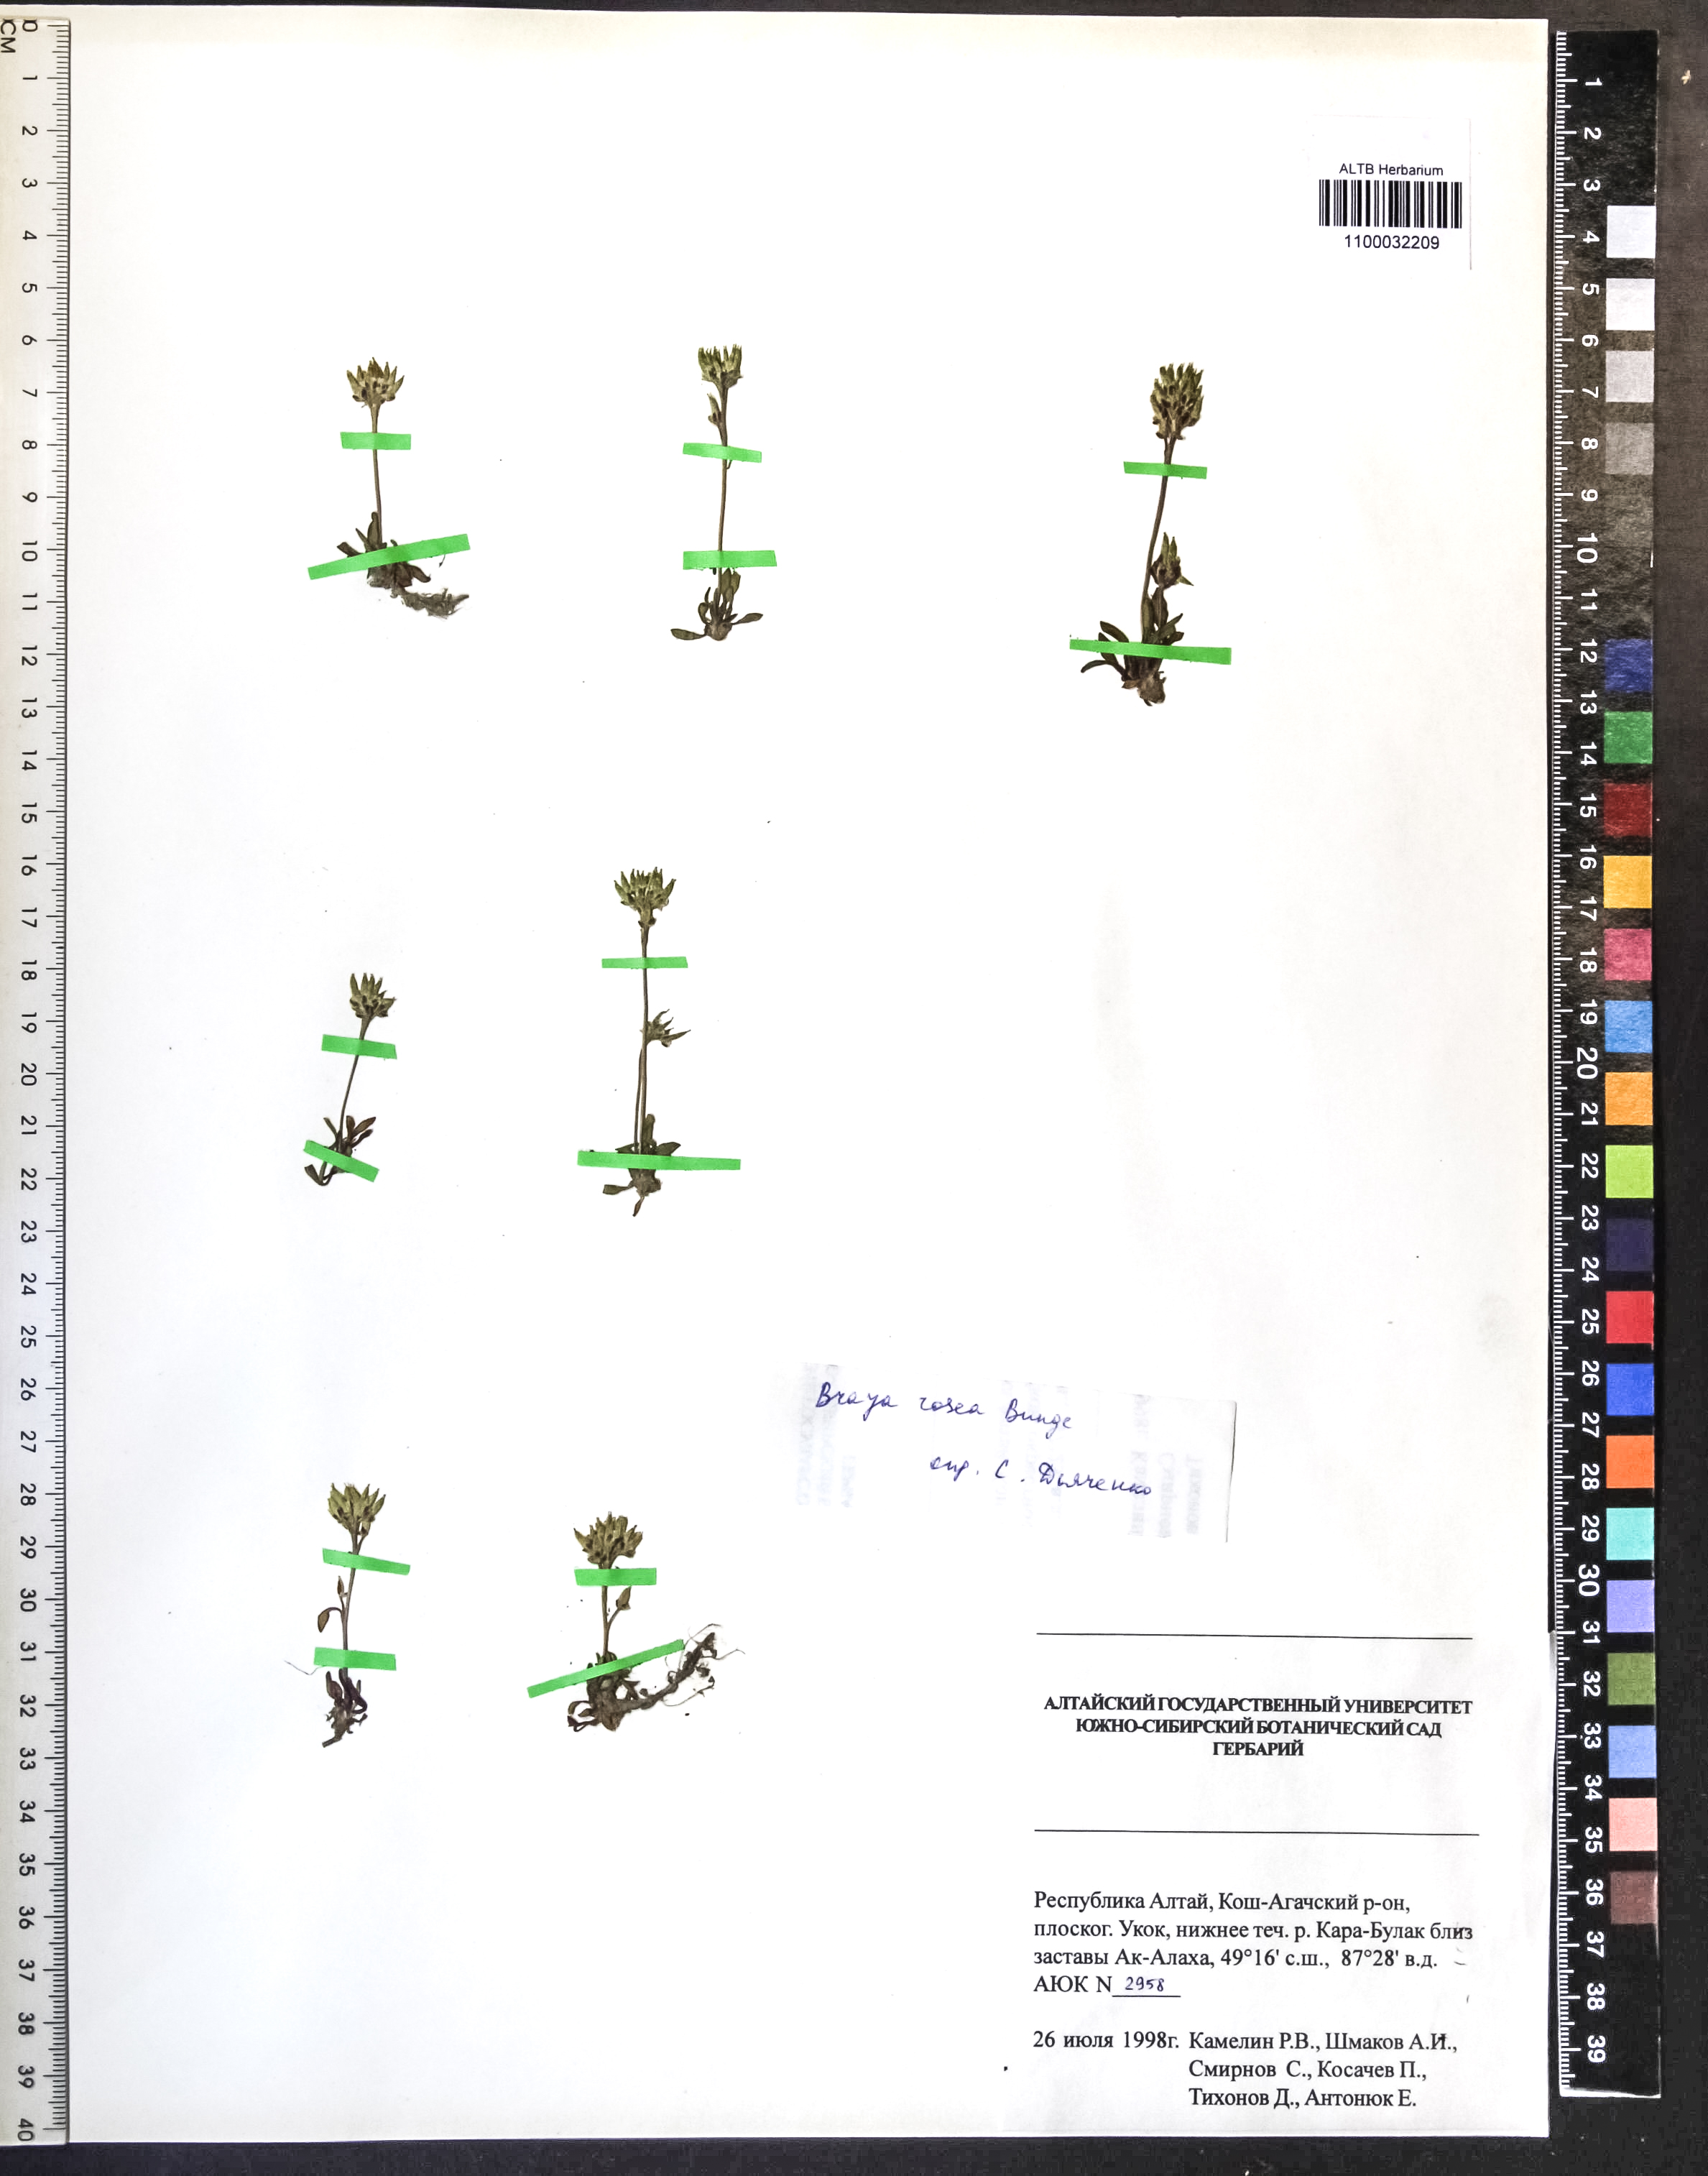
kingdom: Plantae
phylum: Tracheophyta
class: Magnoliopsida
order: Brassicales
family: Brassicaceae
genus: Braya
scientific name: Braya rosea
